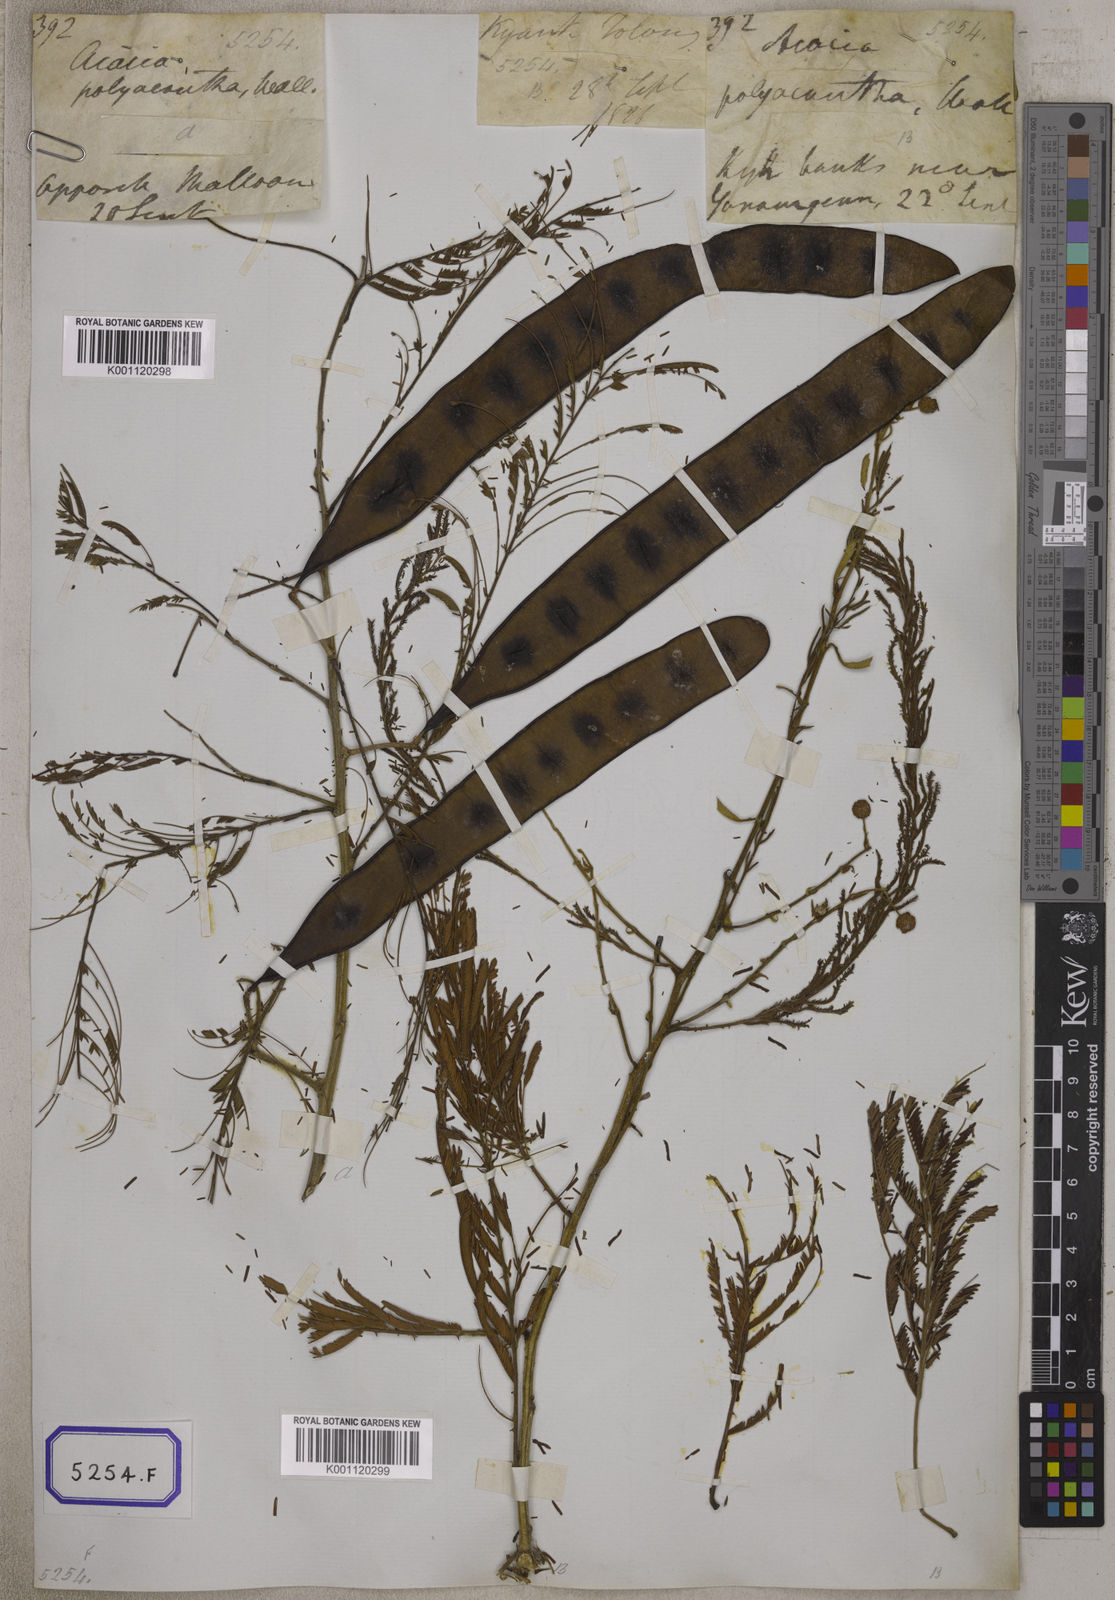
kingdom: Plantae
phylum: Tracheophyta
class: Magnoliopsida
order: Fabales
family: Fabaceae
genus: Senegalia
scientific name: Senegalia pennata
